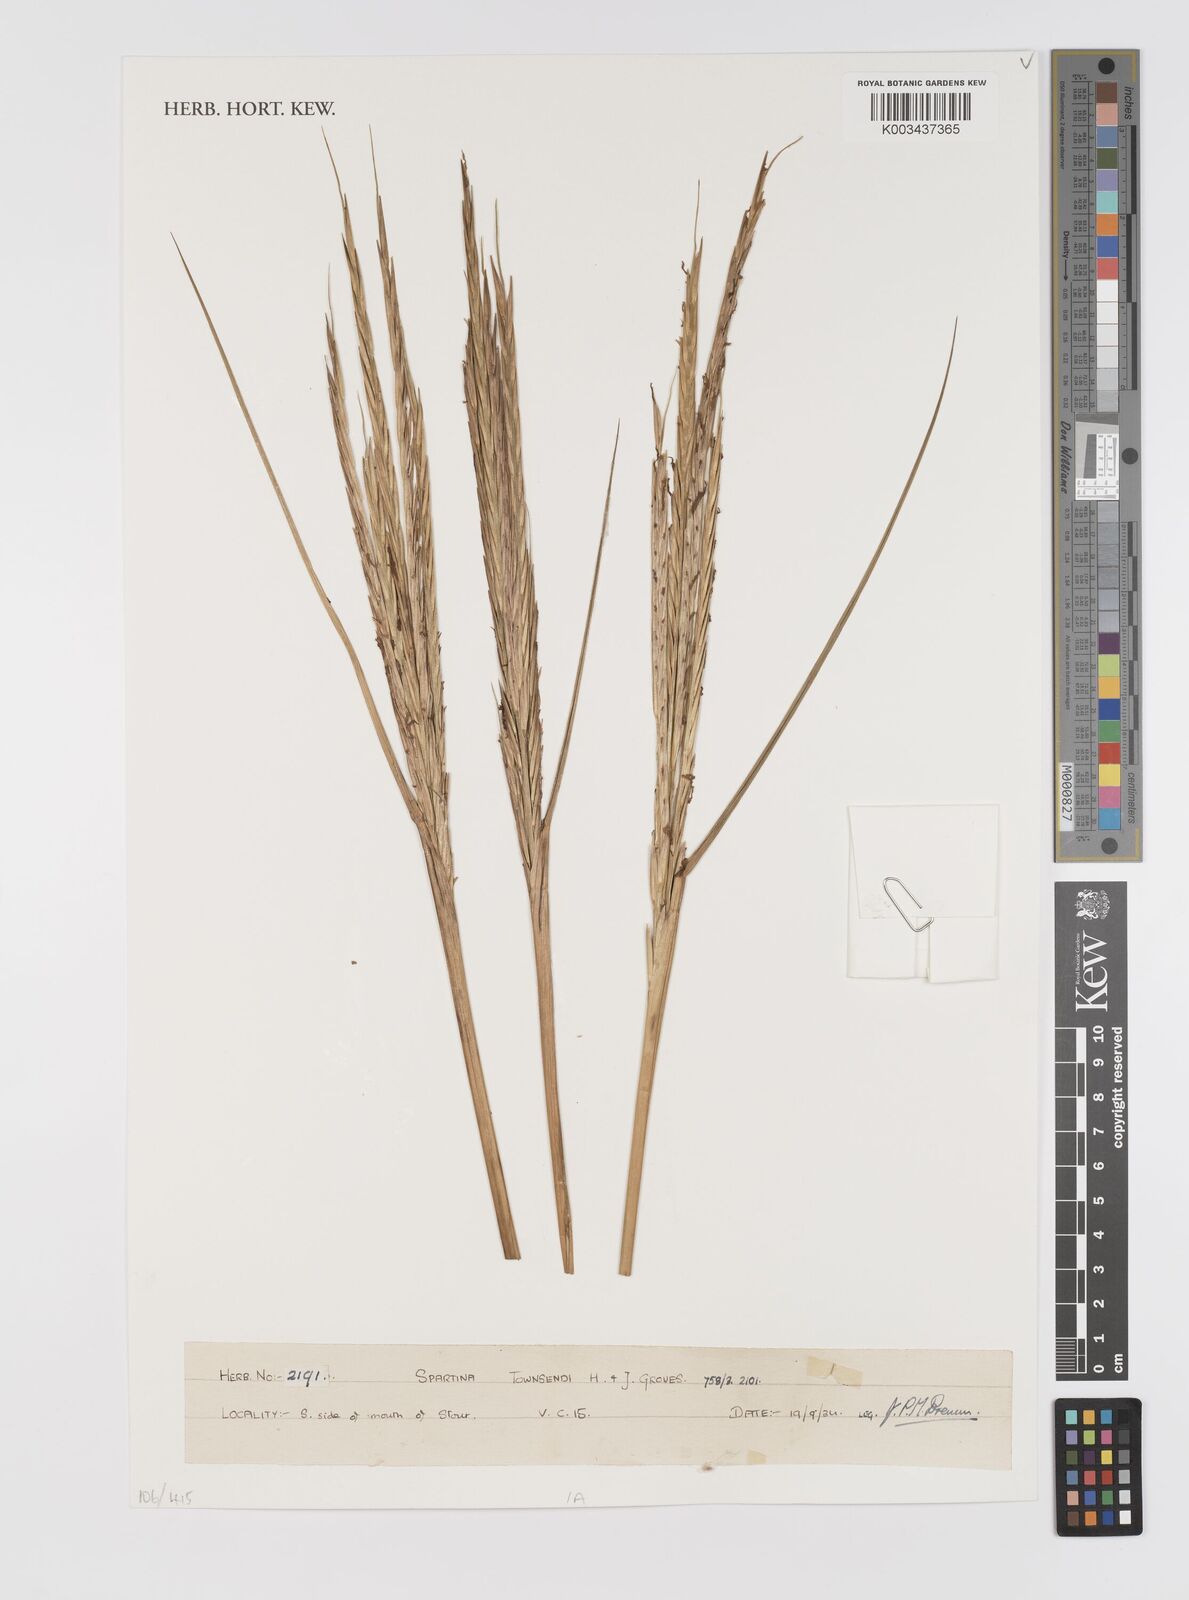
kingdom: Plantae
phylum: Tracheophyta
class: Liliopsida
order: Poales
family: Poaceae
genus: Sporobolus
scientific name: Sporobolus townsendii
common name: Townsend's cordgrass
